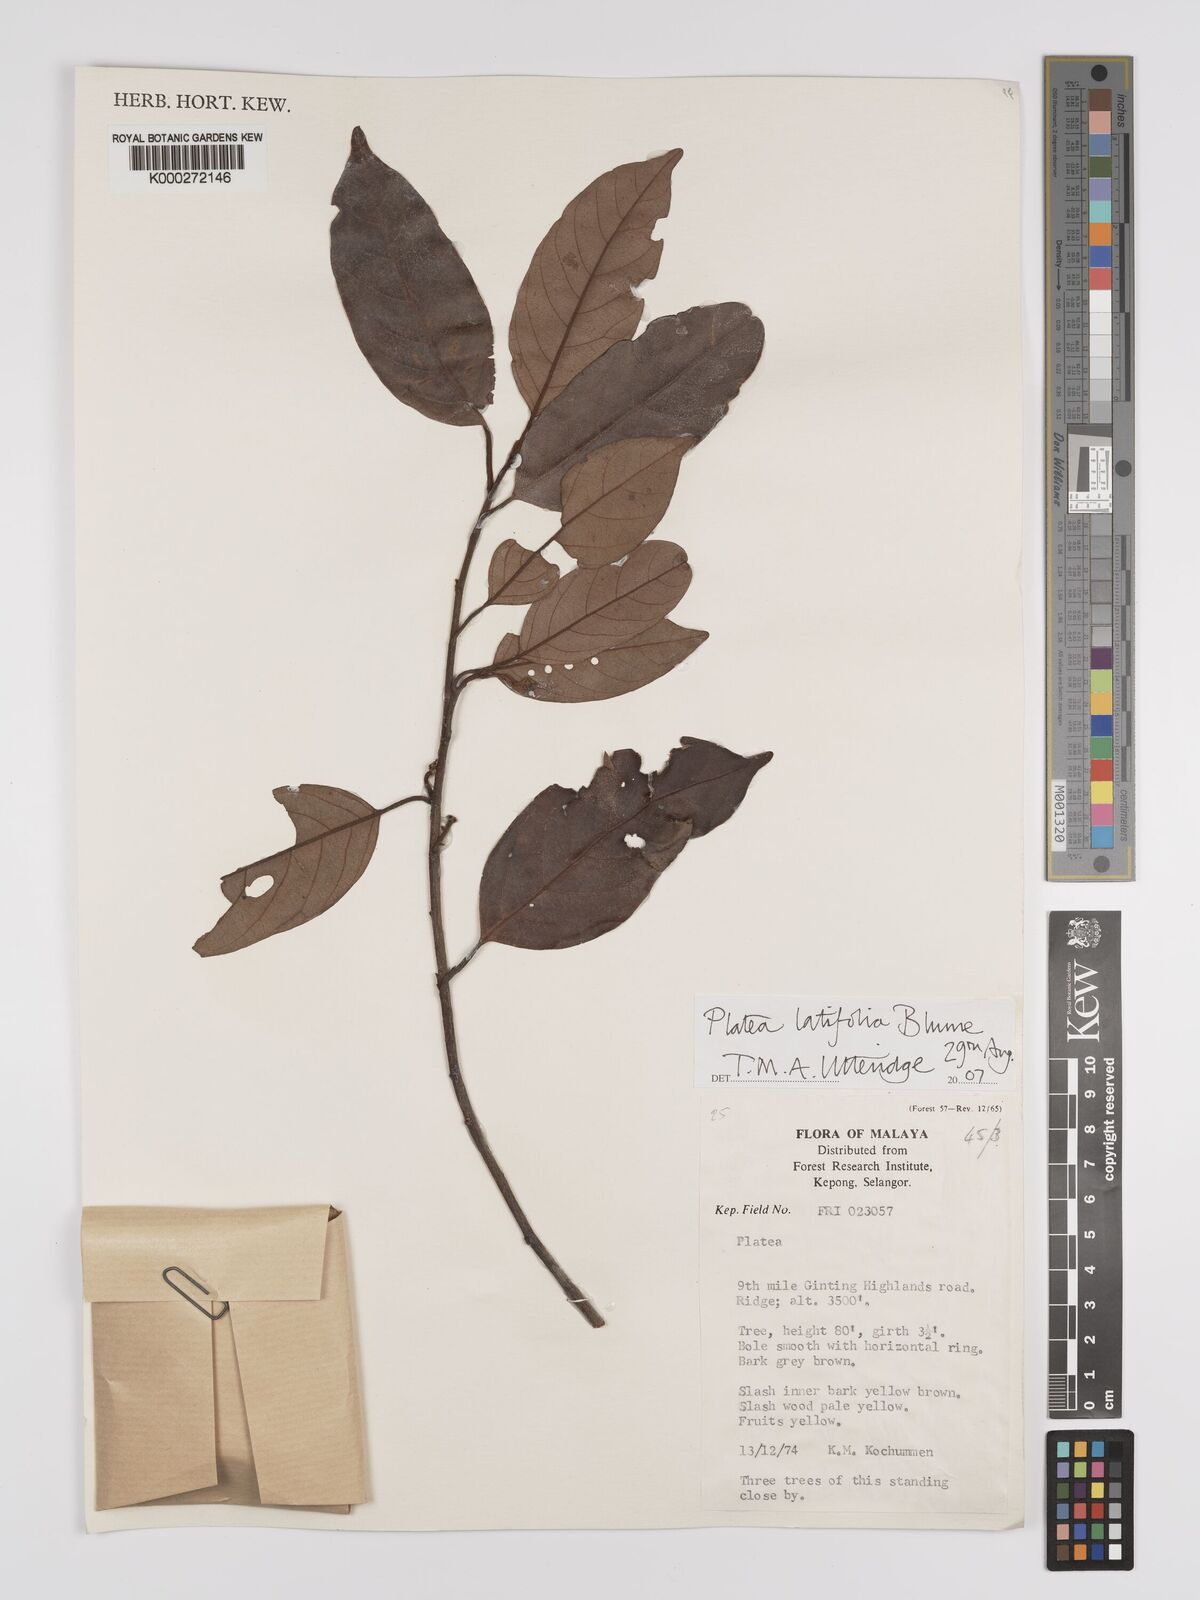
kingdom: Plantae
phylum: Tracheophyta
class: Magnoliopsida
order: Metteniusales
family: Metteniusaceae
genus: Platea
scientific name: Platea latifolia
